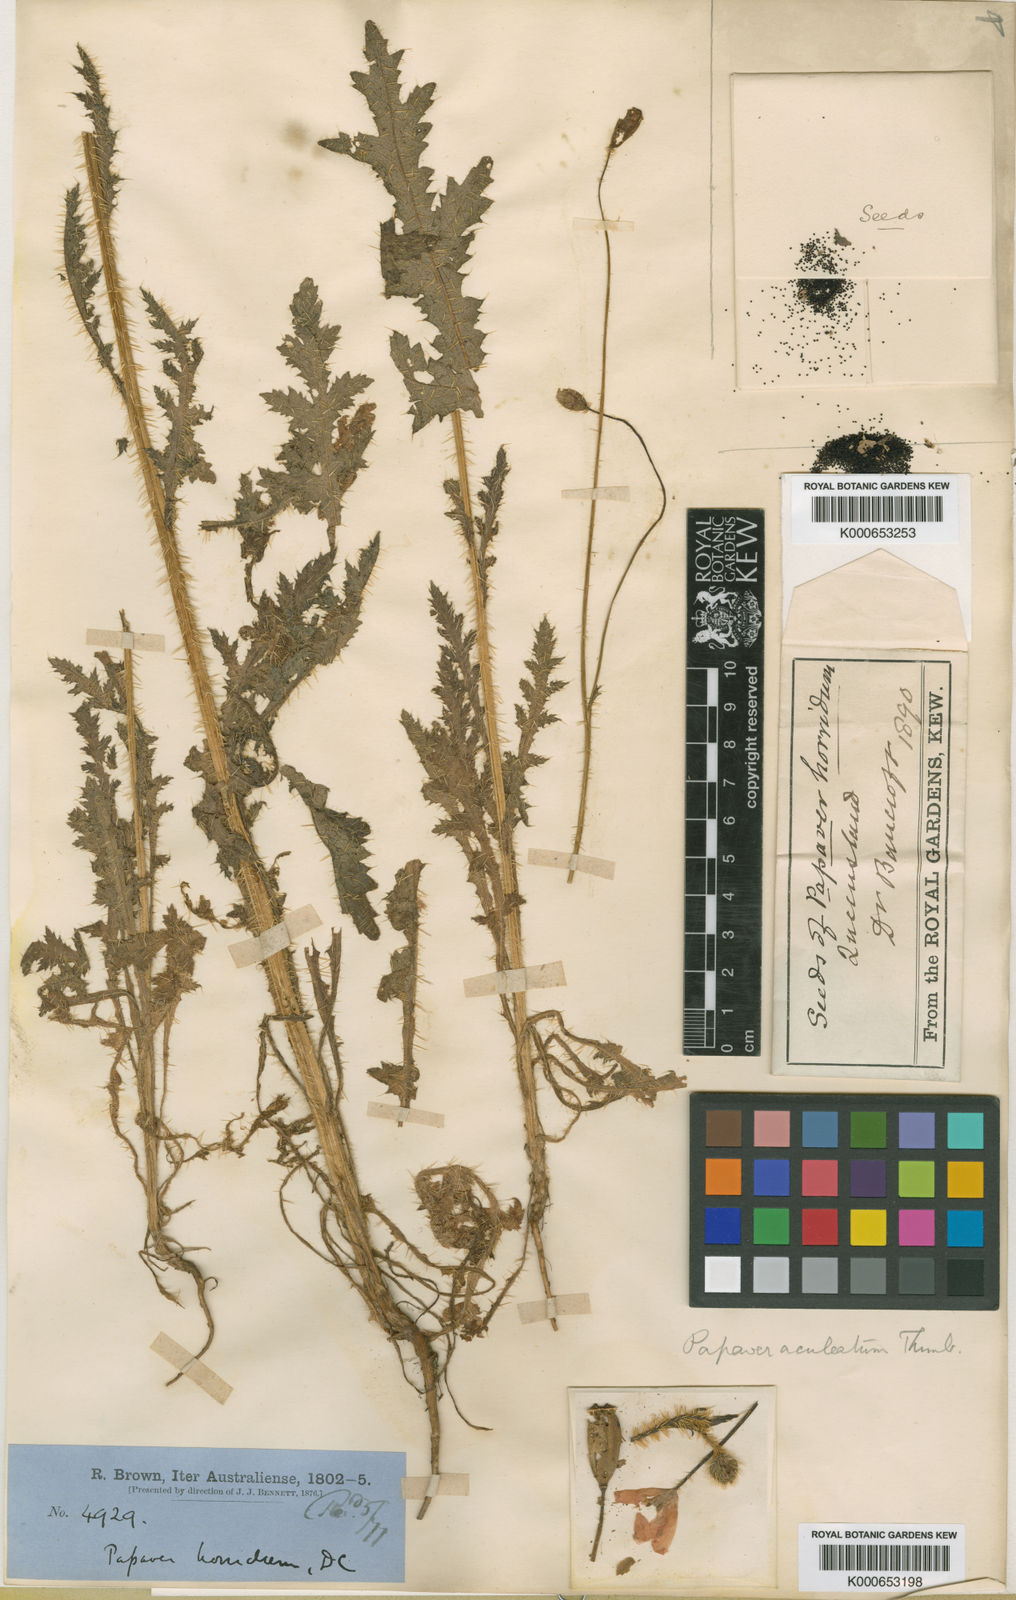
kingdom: Plantae
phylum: Tracheophyta
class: Magnoliopsida
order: Ranunculales
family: Papaveraceae
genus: Papaver
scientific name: Papaver aculeatum
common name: Bristle poppy
